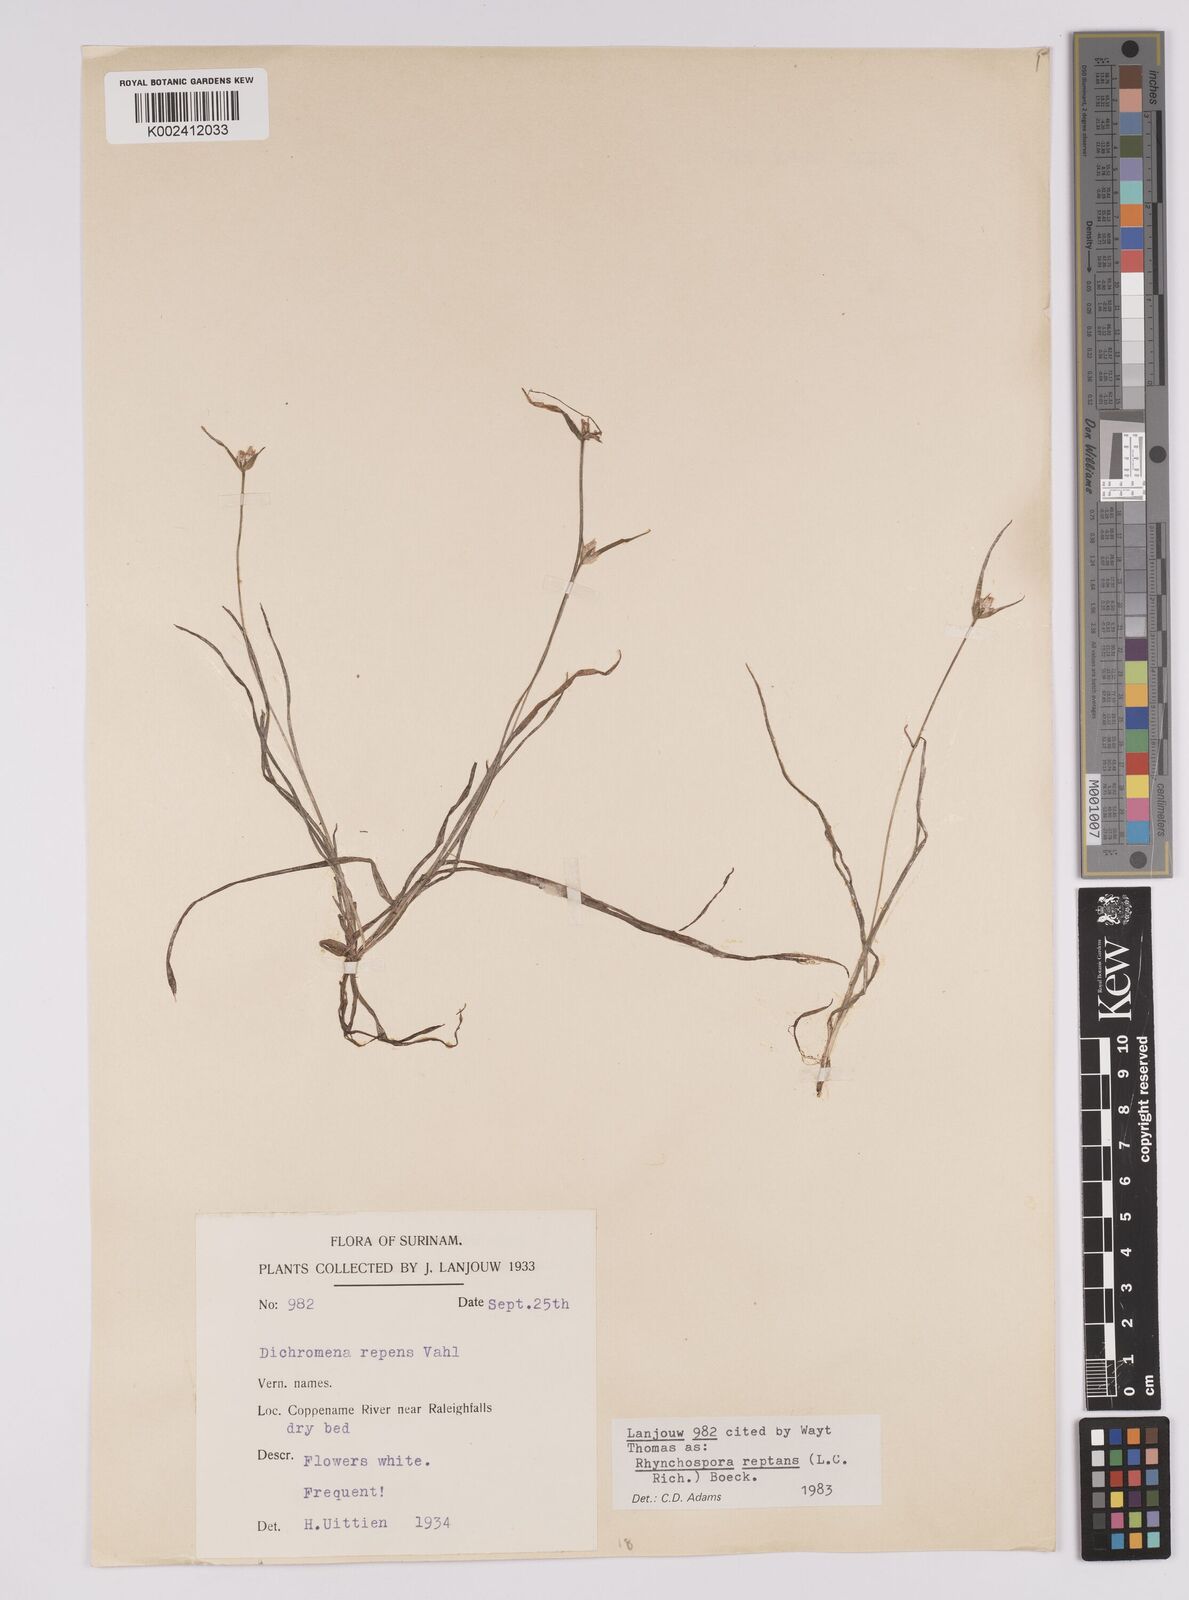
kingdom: Plantae
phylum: Tracheophyta
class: Liliopsida
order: Poales
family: Cyperaceae
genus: Rhynchospora
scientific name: Rhynchospora reptans
